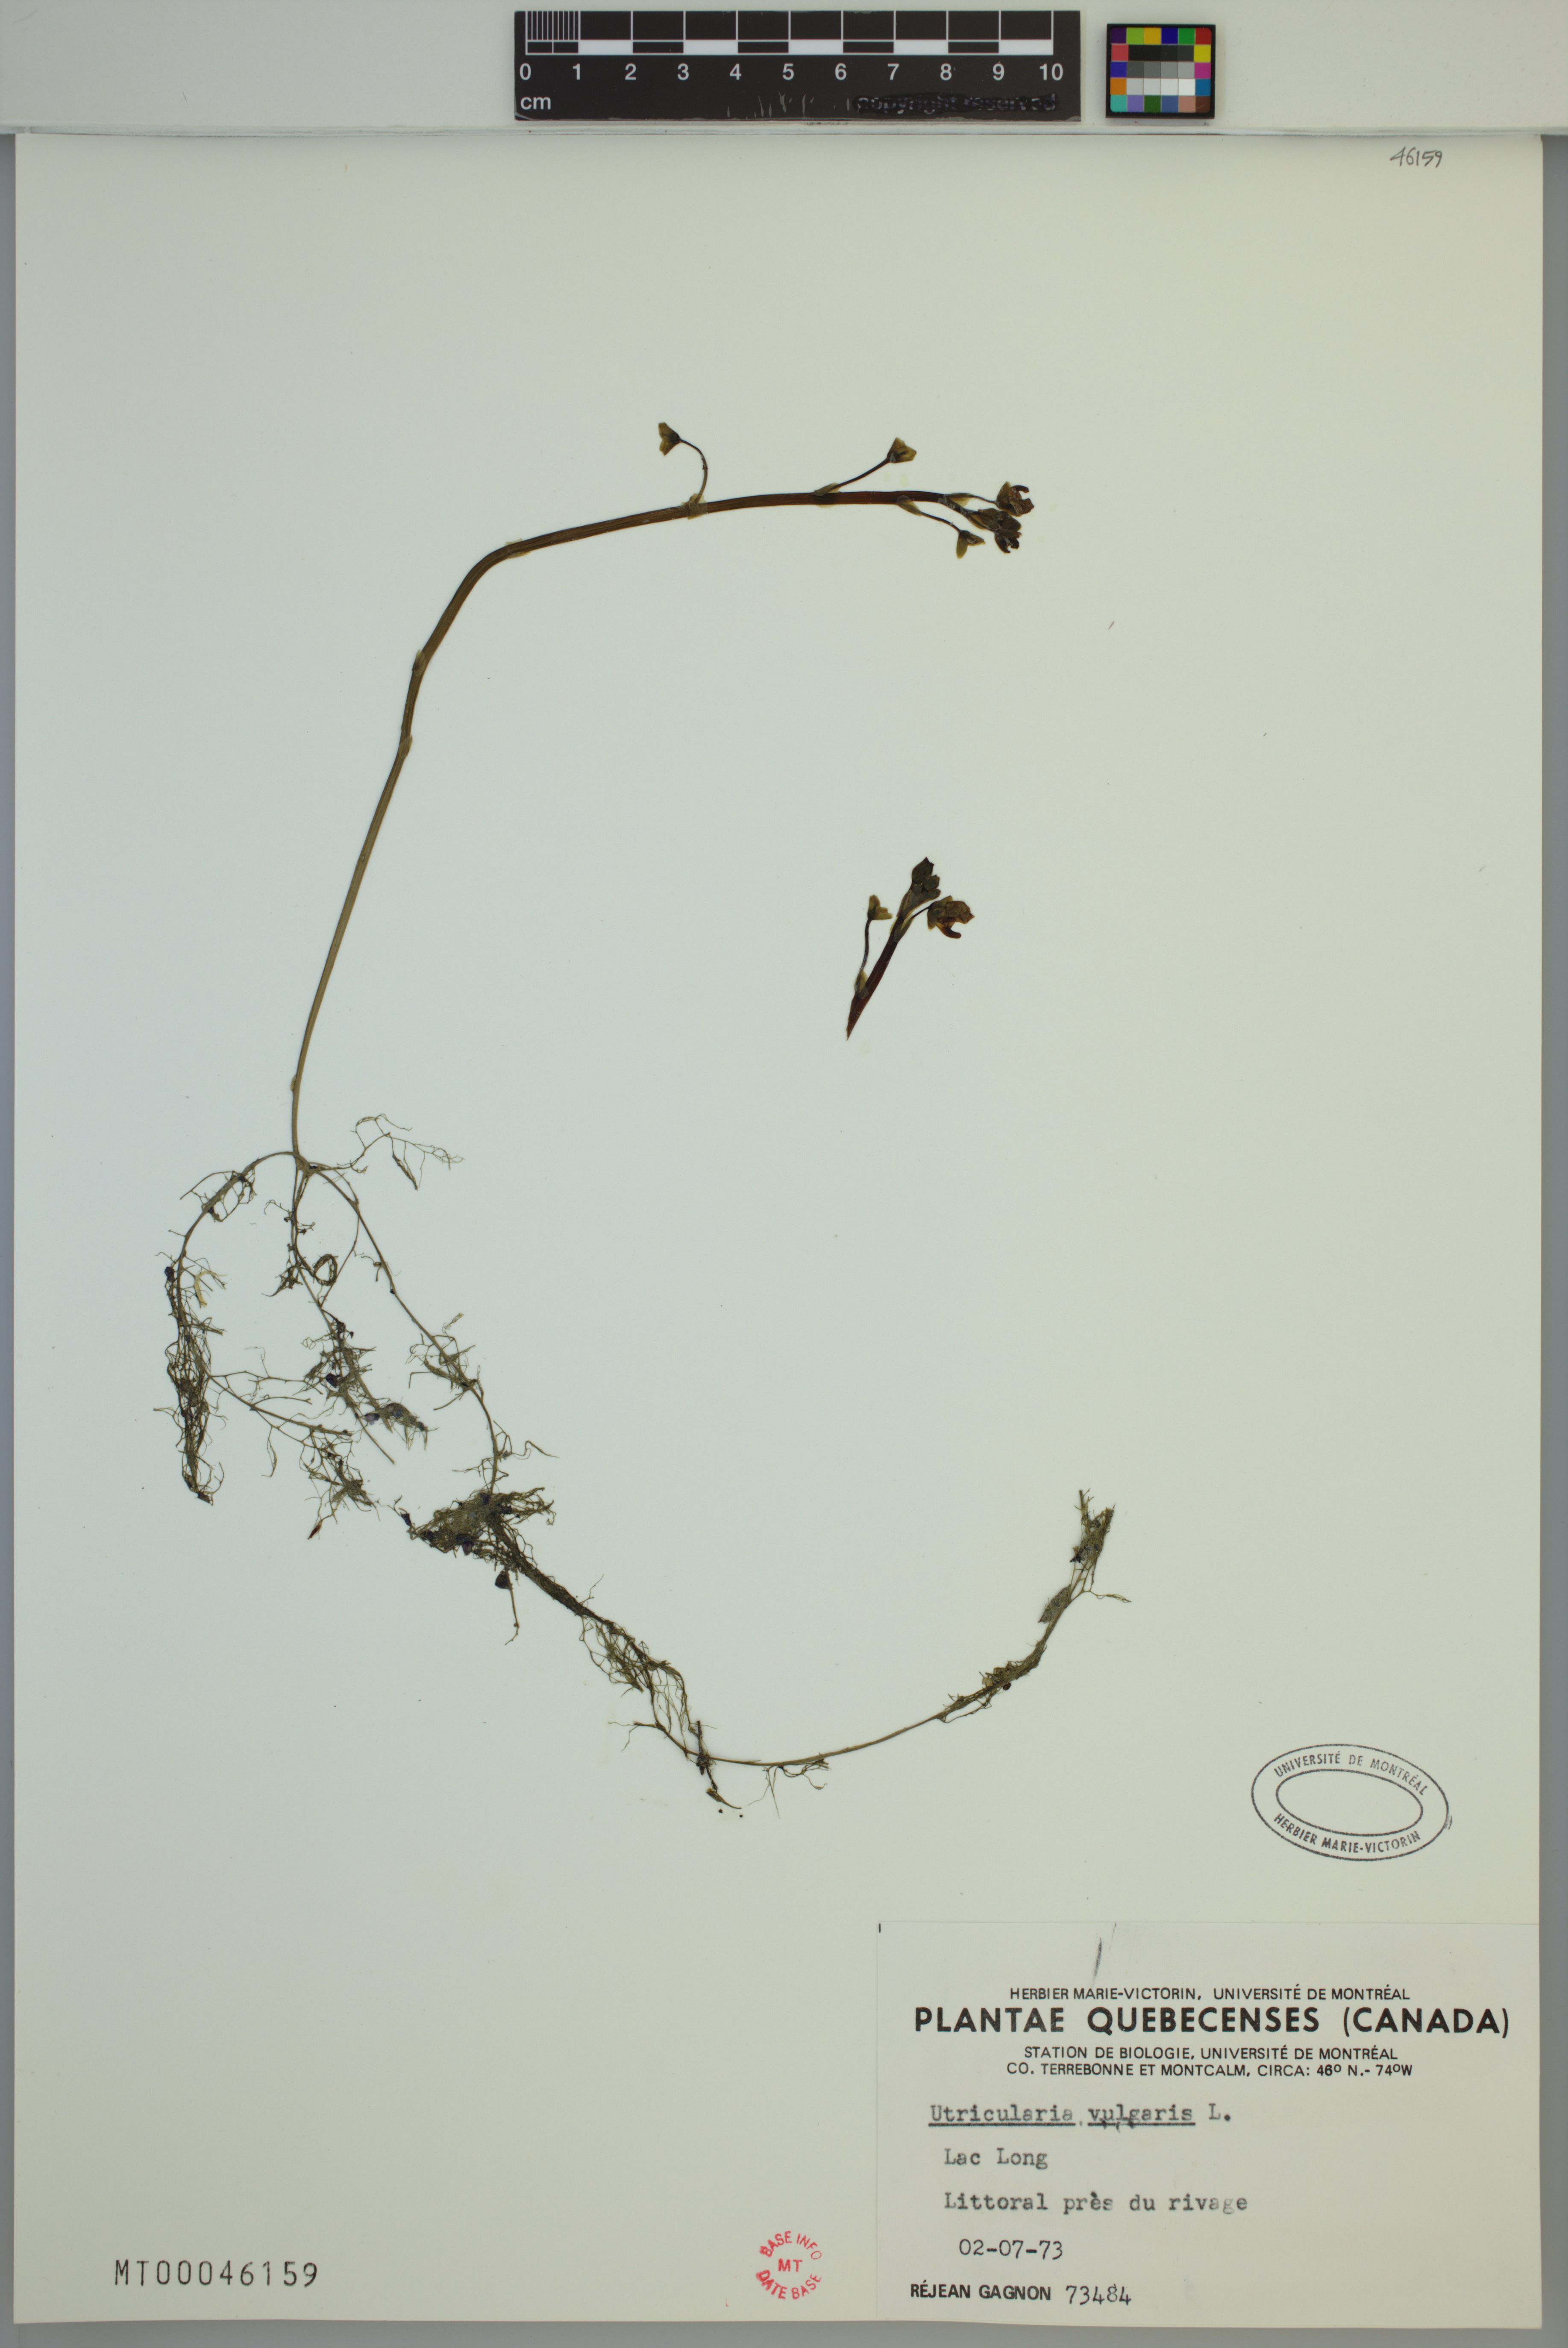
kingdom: Plantae
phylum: Tracheophyta
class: Magnoliopsida
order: Lamiales
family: Lentibulariaceae
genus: Utricularia
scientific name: Utricularia macrorhiza
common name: Common bladderwort
